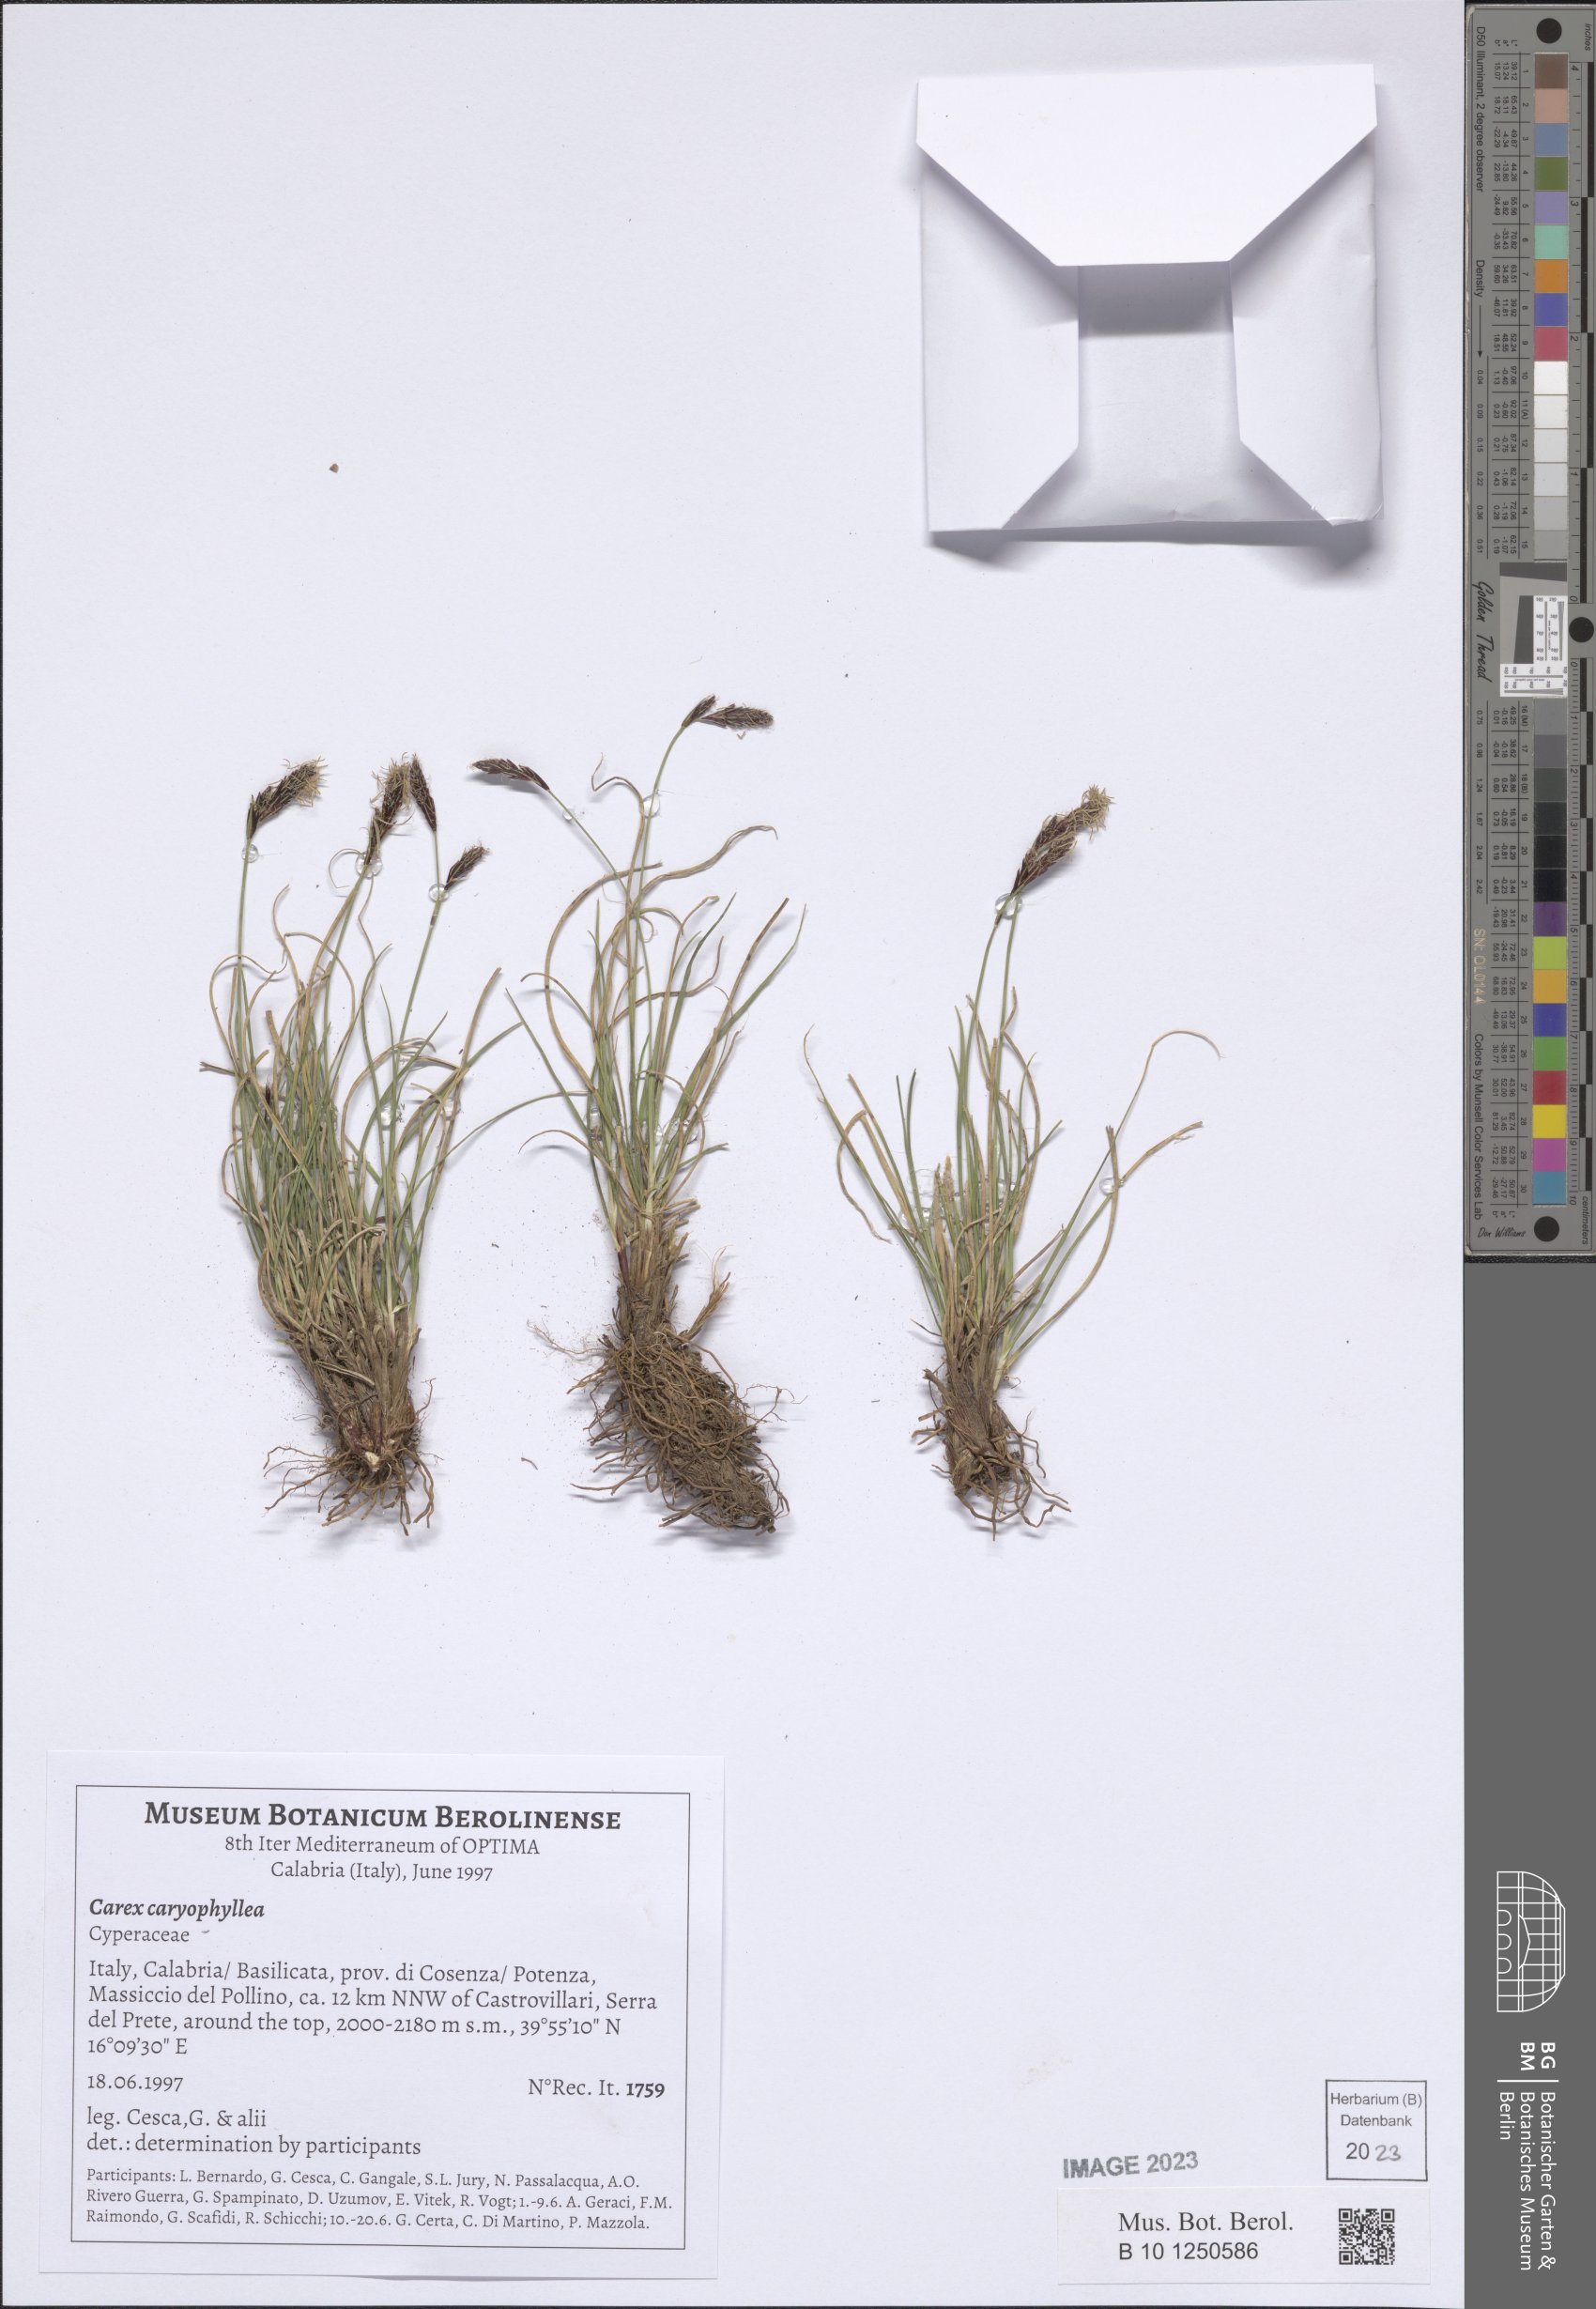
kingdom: Plantae
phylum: Tracheophyta
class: Liliopsida
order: Poales
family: Cyperaceae
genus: Carex
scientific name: Carex kitaibeliana
